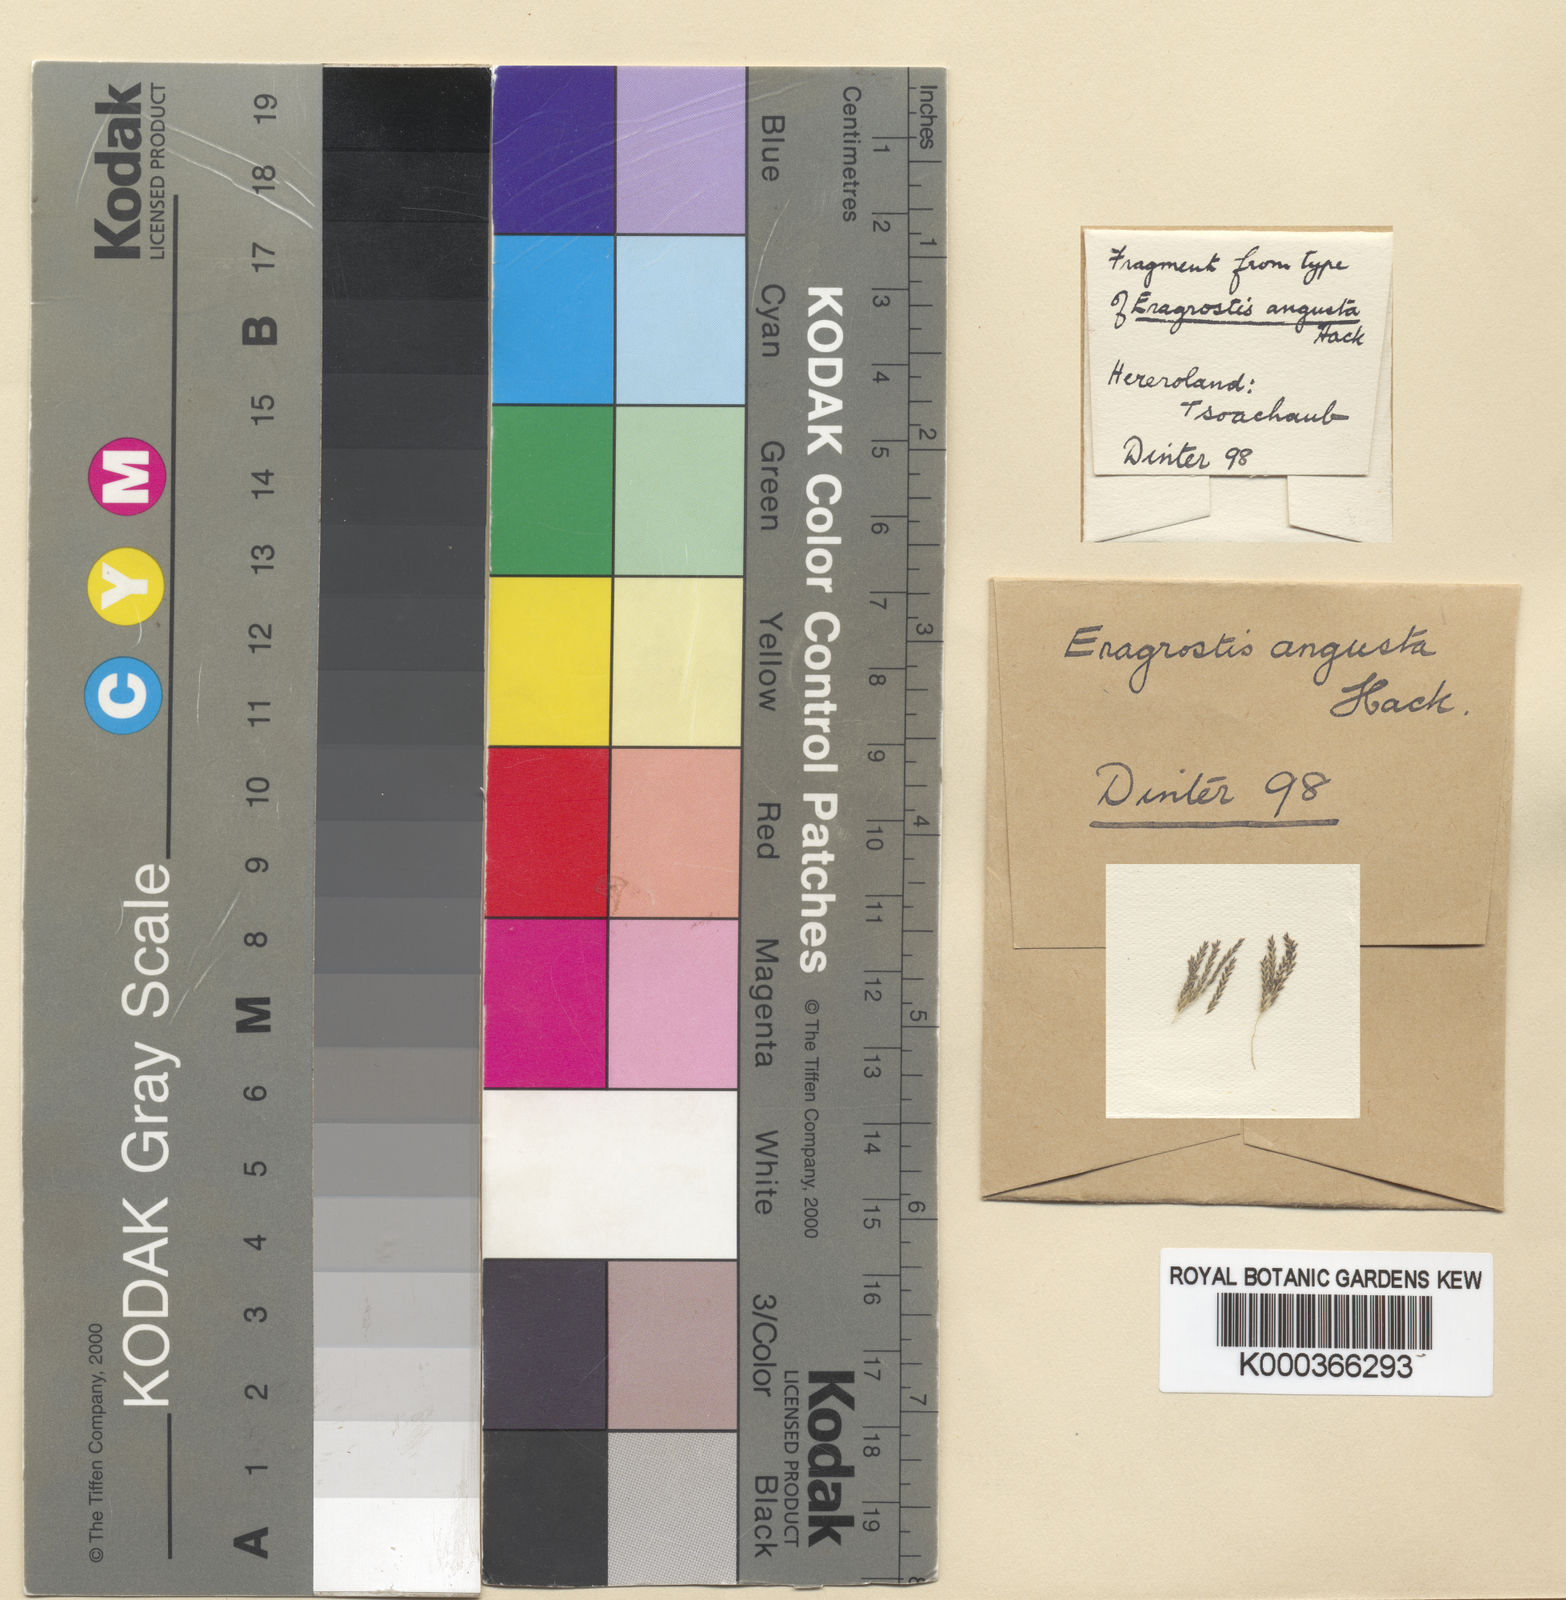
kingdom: Plantae
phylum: Tracheophyta
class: Liliopsida
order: Poales
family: Poaceae
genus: Eragrostis
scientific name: Eragrostis rotifer
